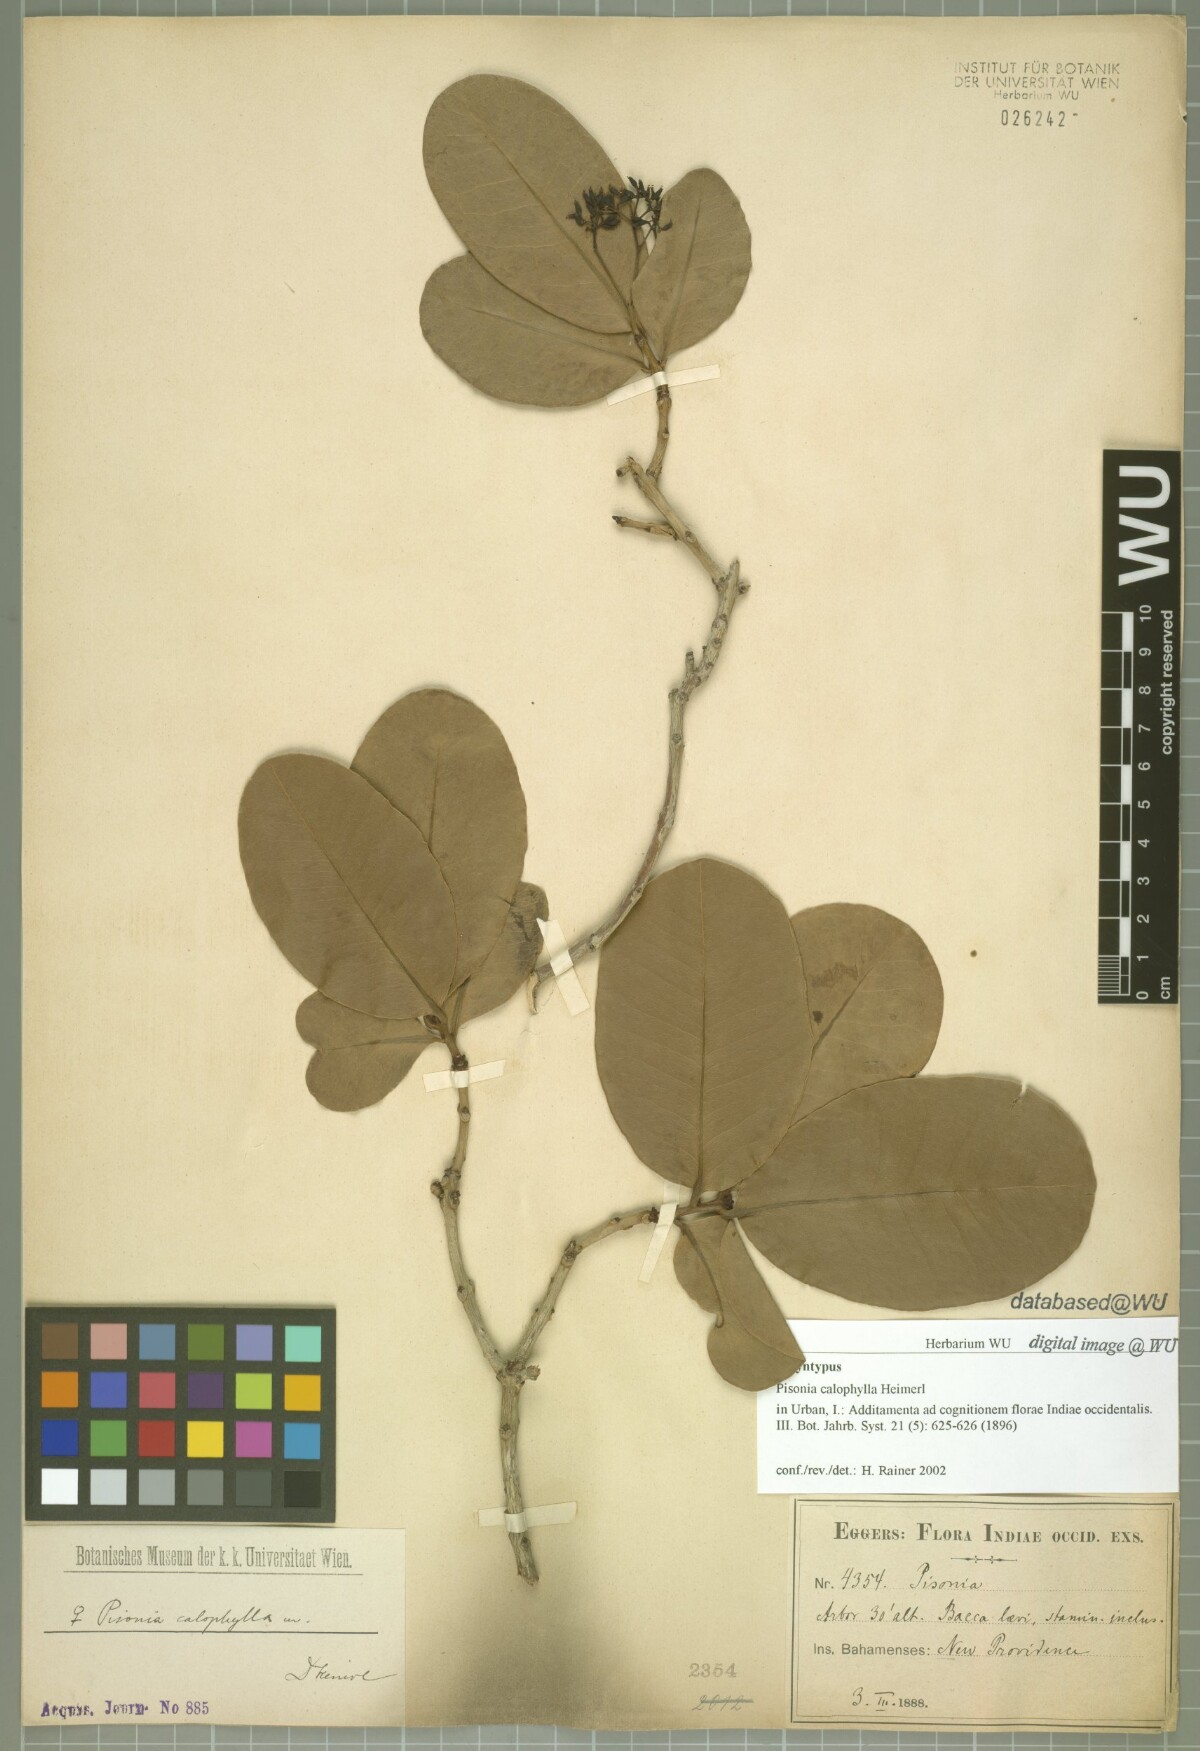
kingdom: Plantae
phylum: Tracheophyta
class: Magnoliopsida
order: Caryophyllales
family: Nyctaginaceae
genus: Guapira
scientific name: Guapira obtusata
